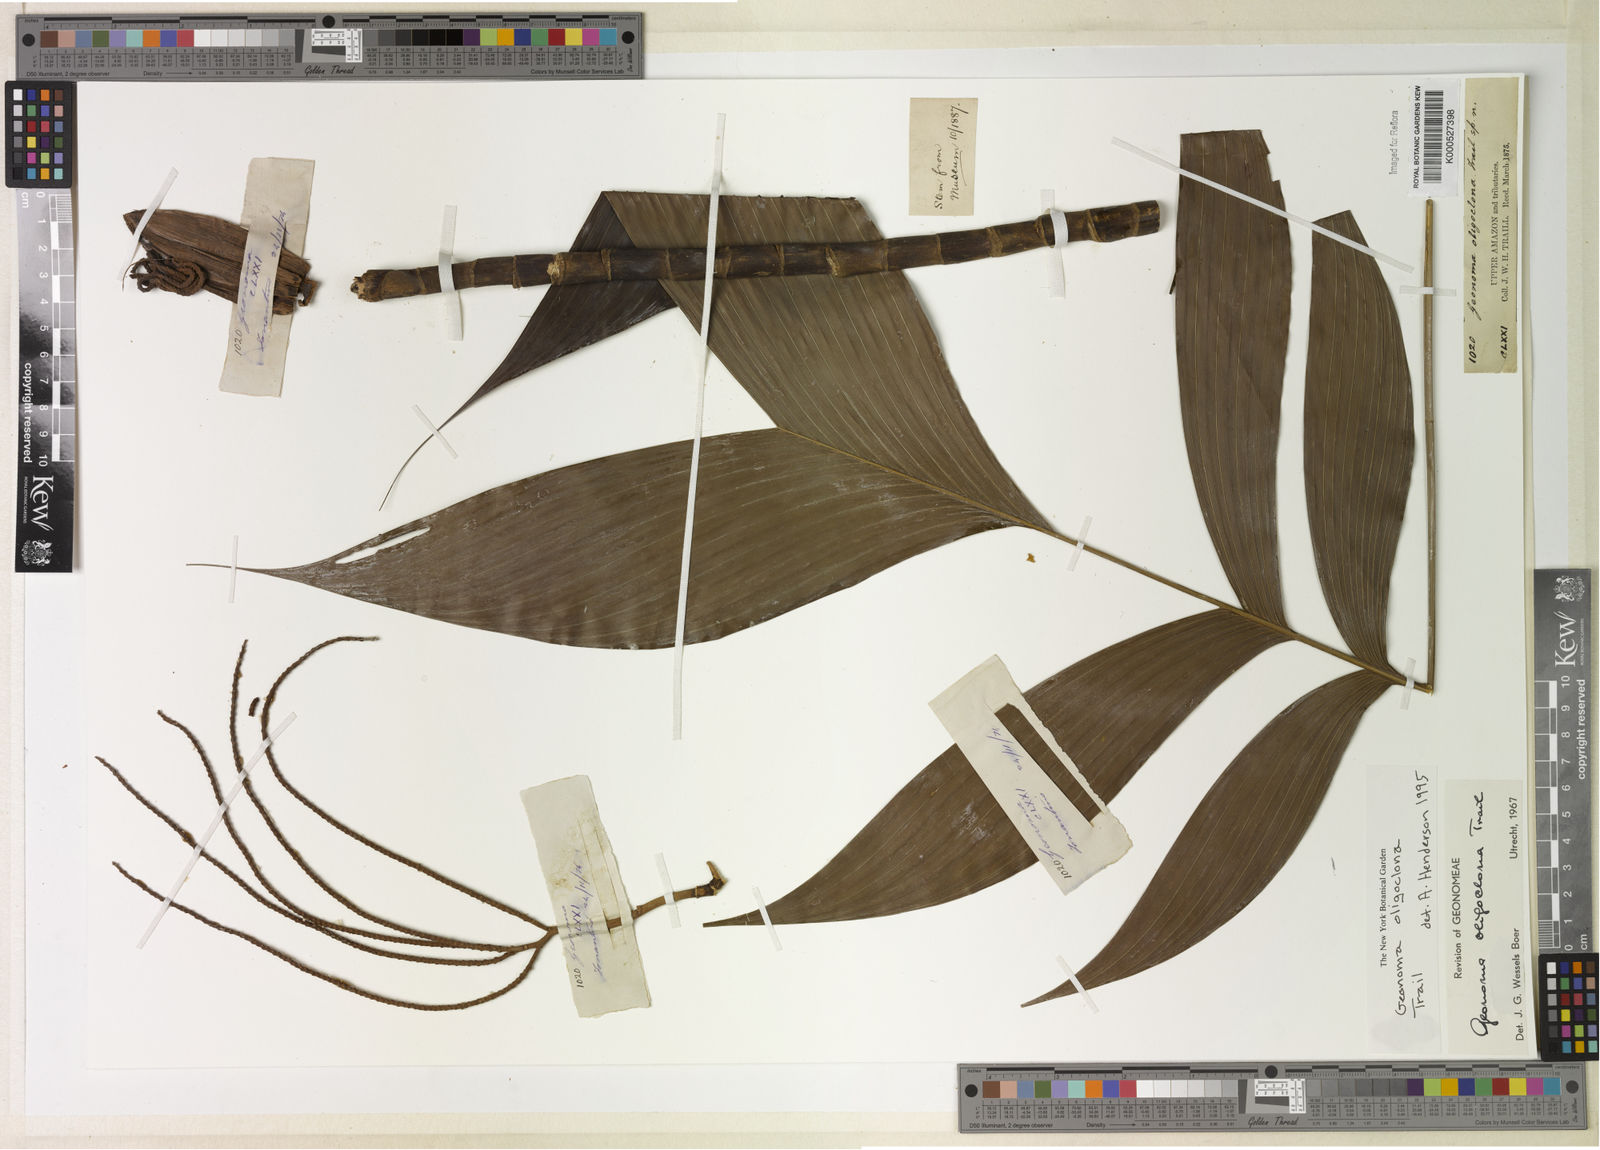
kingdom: Plantae
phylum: Tracheophyta
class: Liliopsida
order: Arecales
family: Arecaceae
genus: Geonoma
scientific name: Geonoma oligoclona
